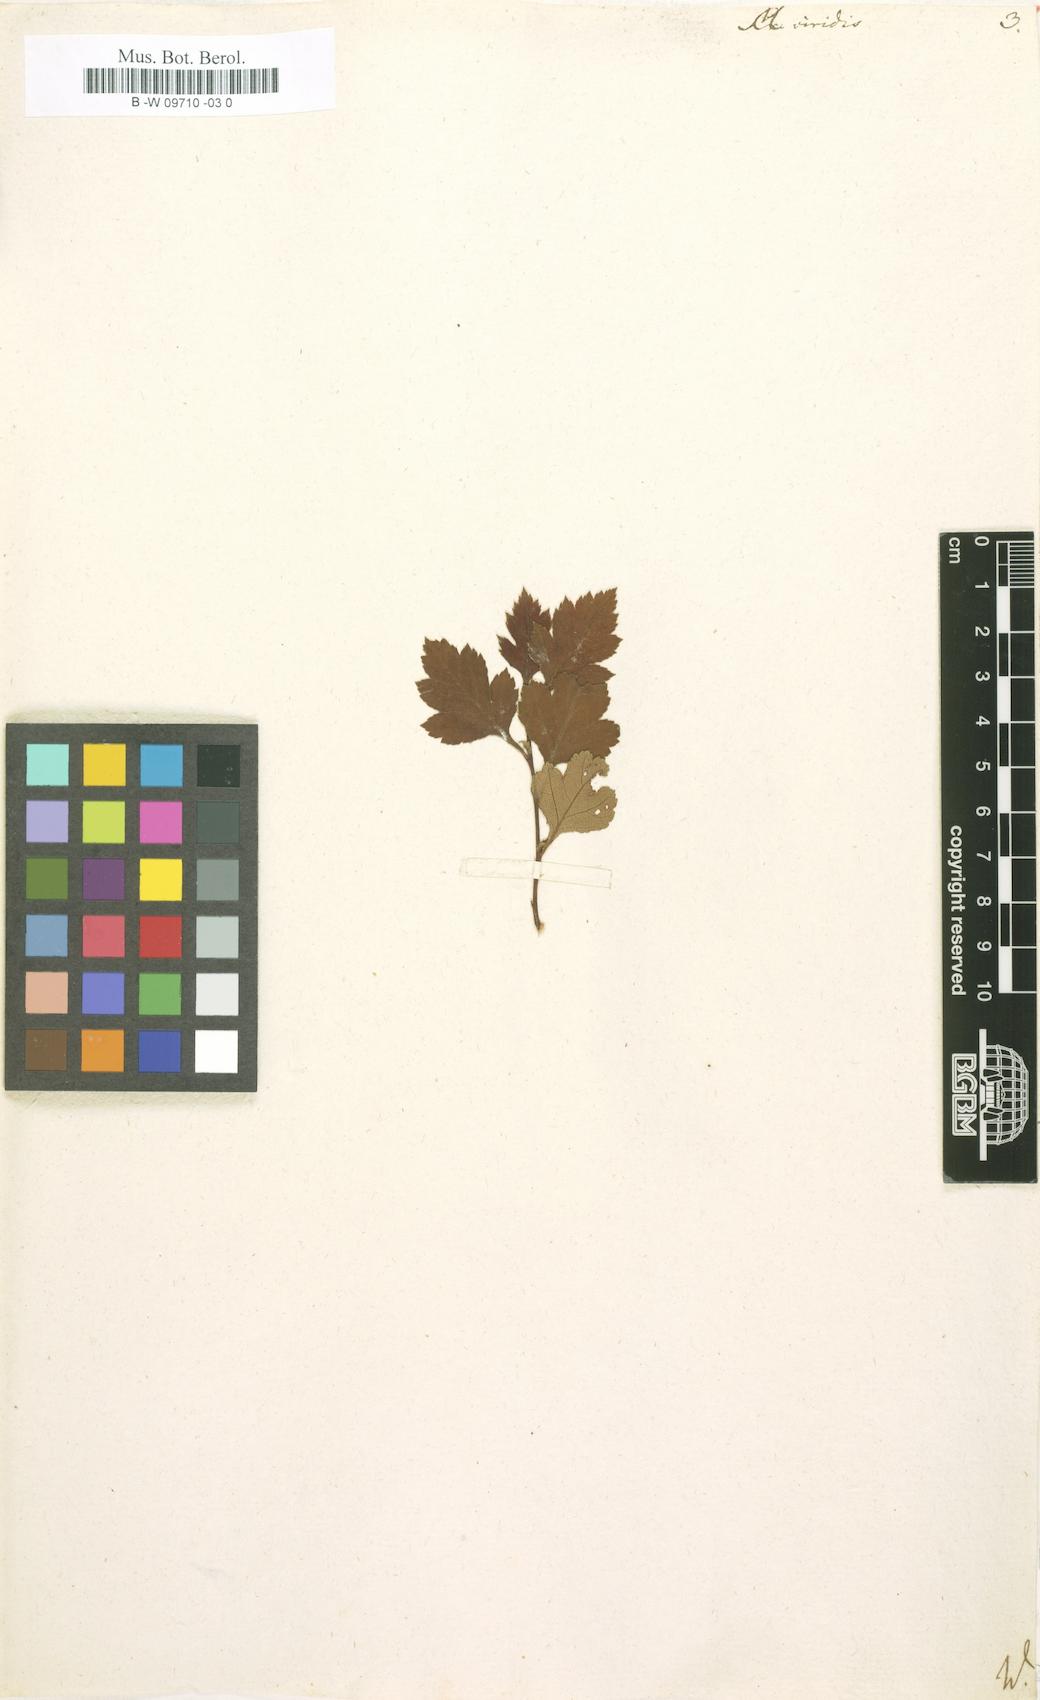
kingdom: Plantae
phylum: Tracheophyta
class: Magnoliopsida
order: Rosales
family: Rosaceae
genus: Crataegus
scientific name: Crataegus
